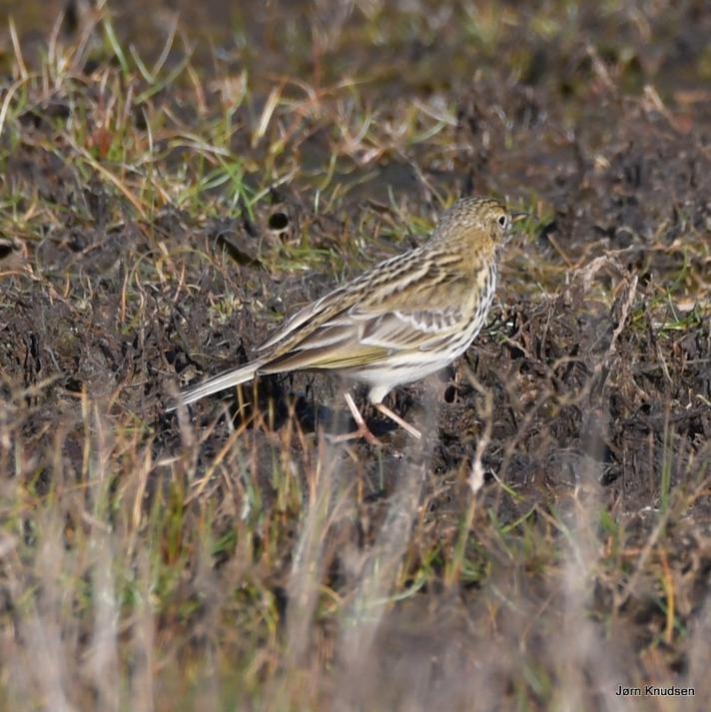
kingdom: Animalia
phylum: Chordata
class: Aves
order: Passeriformes
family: Motacillidae
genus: Anthus
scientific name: Anthus pratensis
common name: Engpiber
